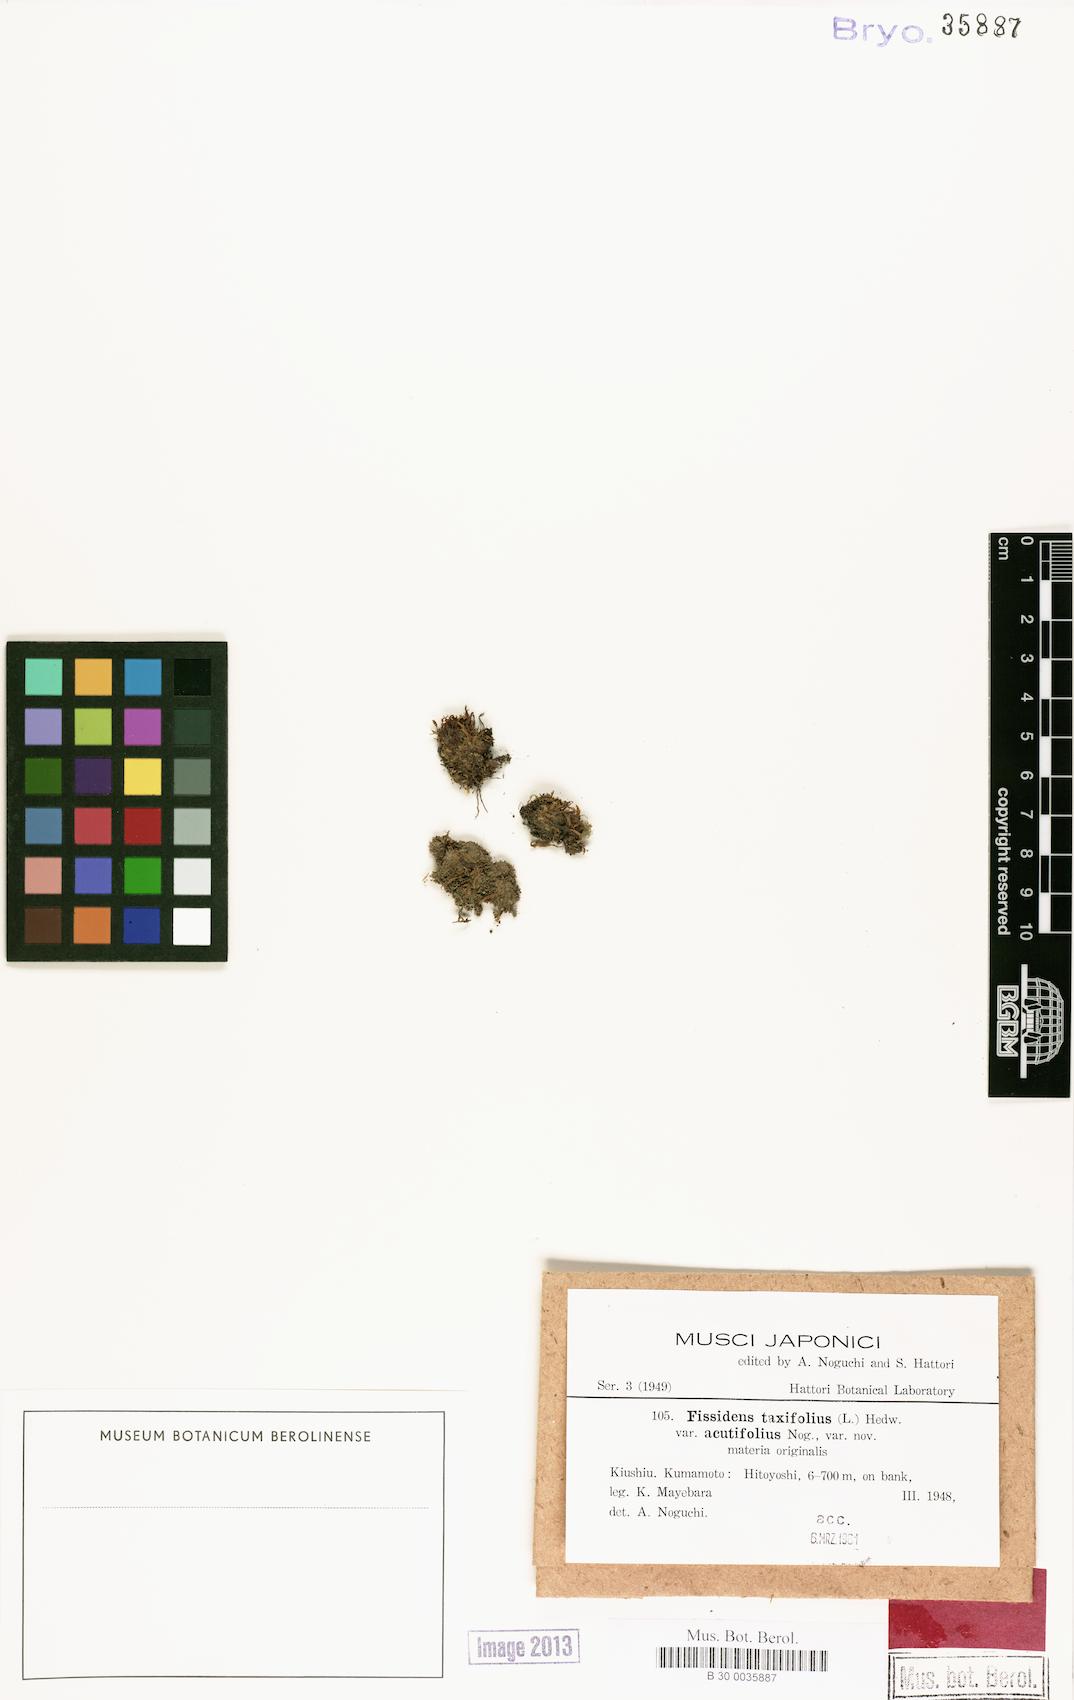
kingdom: Plantae
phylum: Bryophyta
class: Bryopsida
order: Dicranales
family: Fissidentaceae
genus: Fissidens
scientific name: Fissidens taxifolius
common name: Yew-leaved pocket moss
